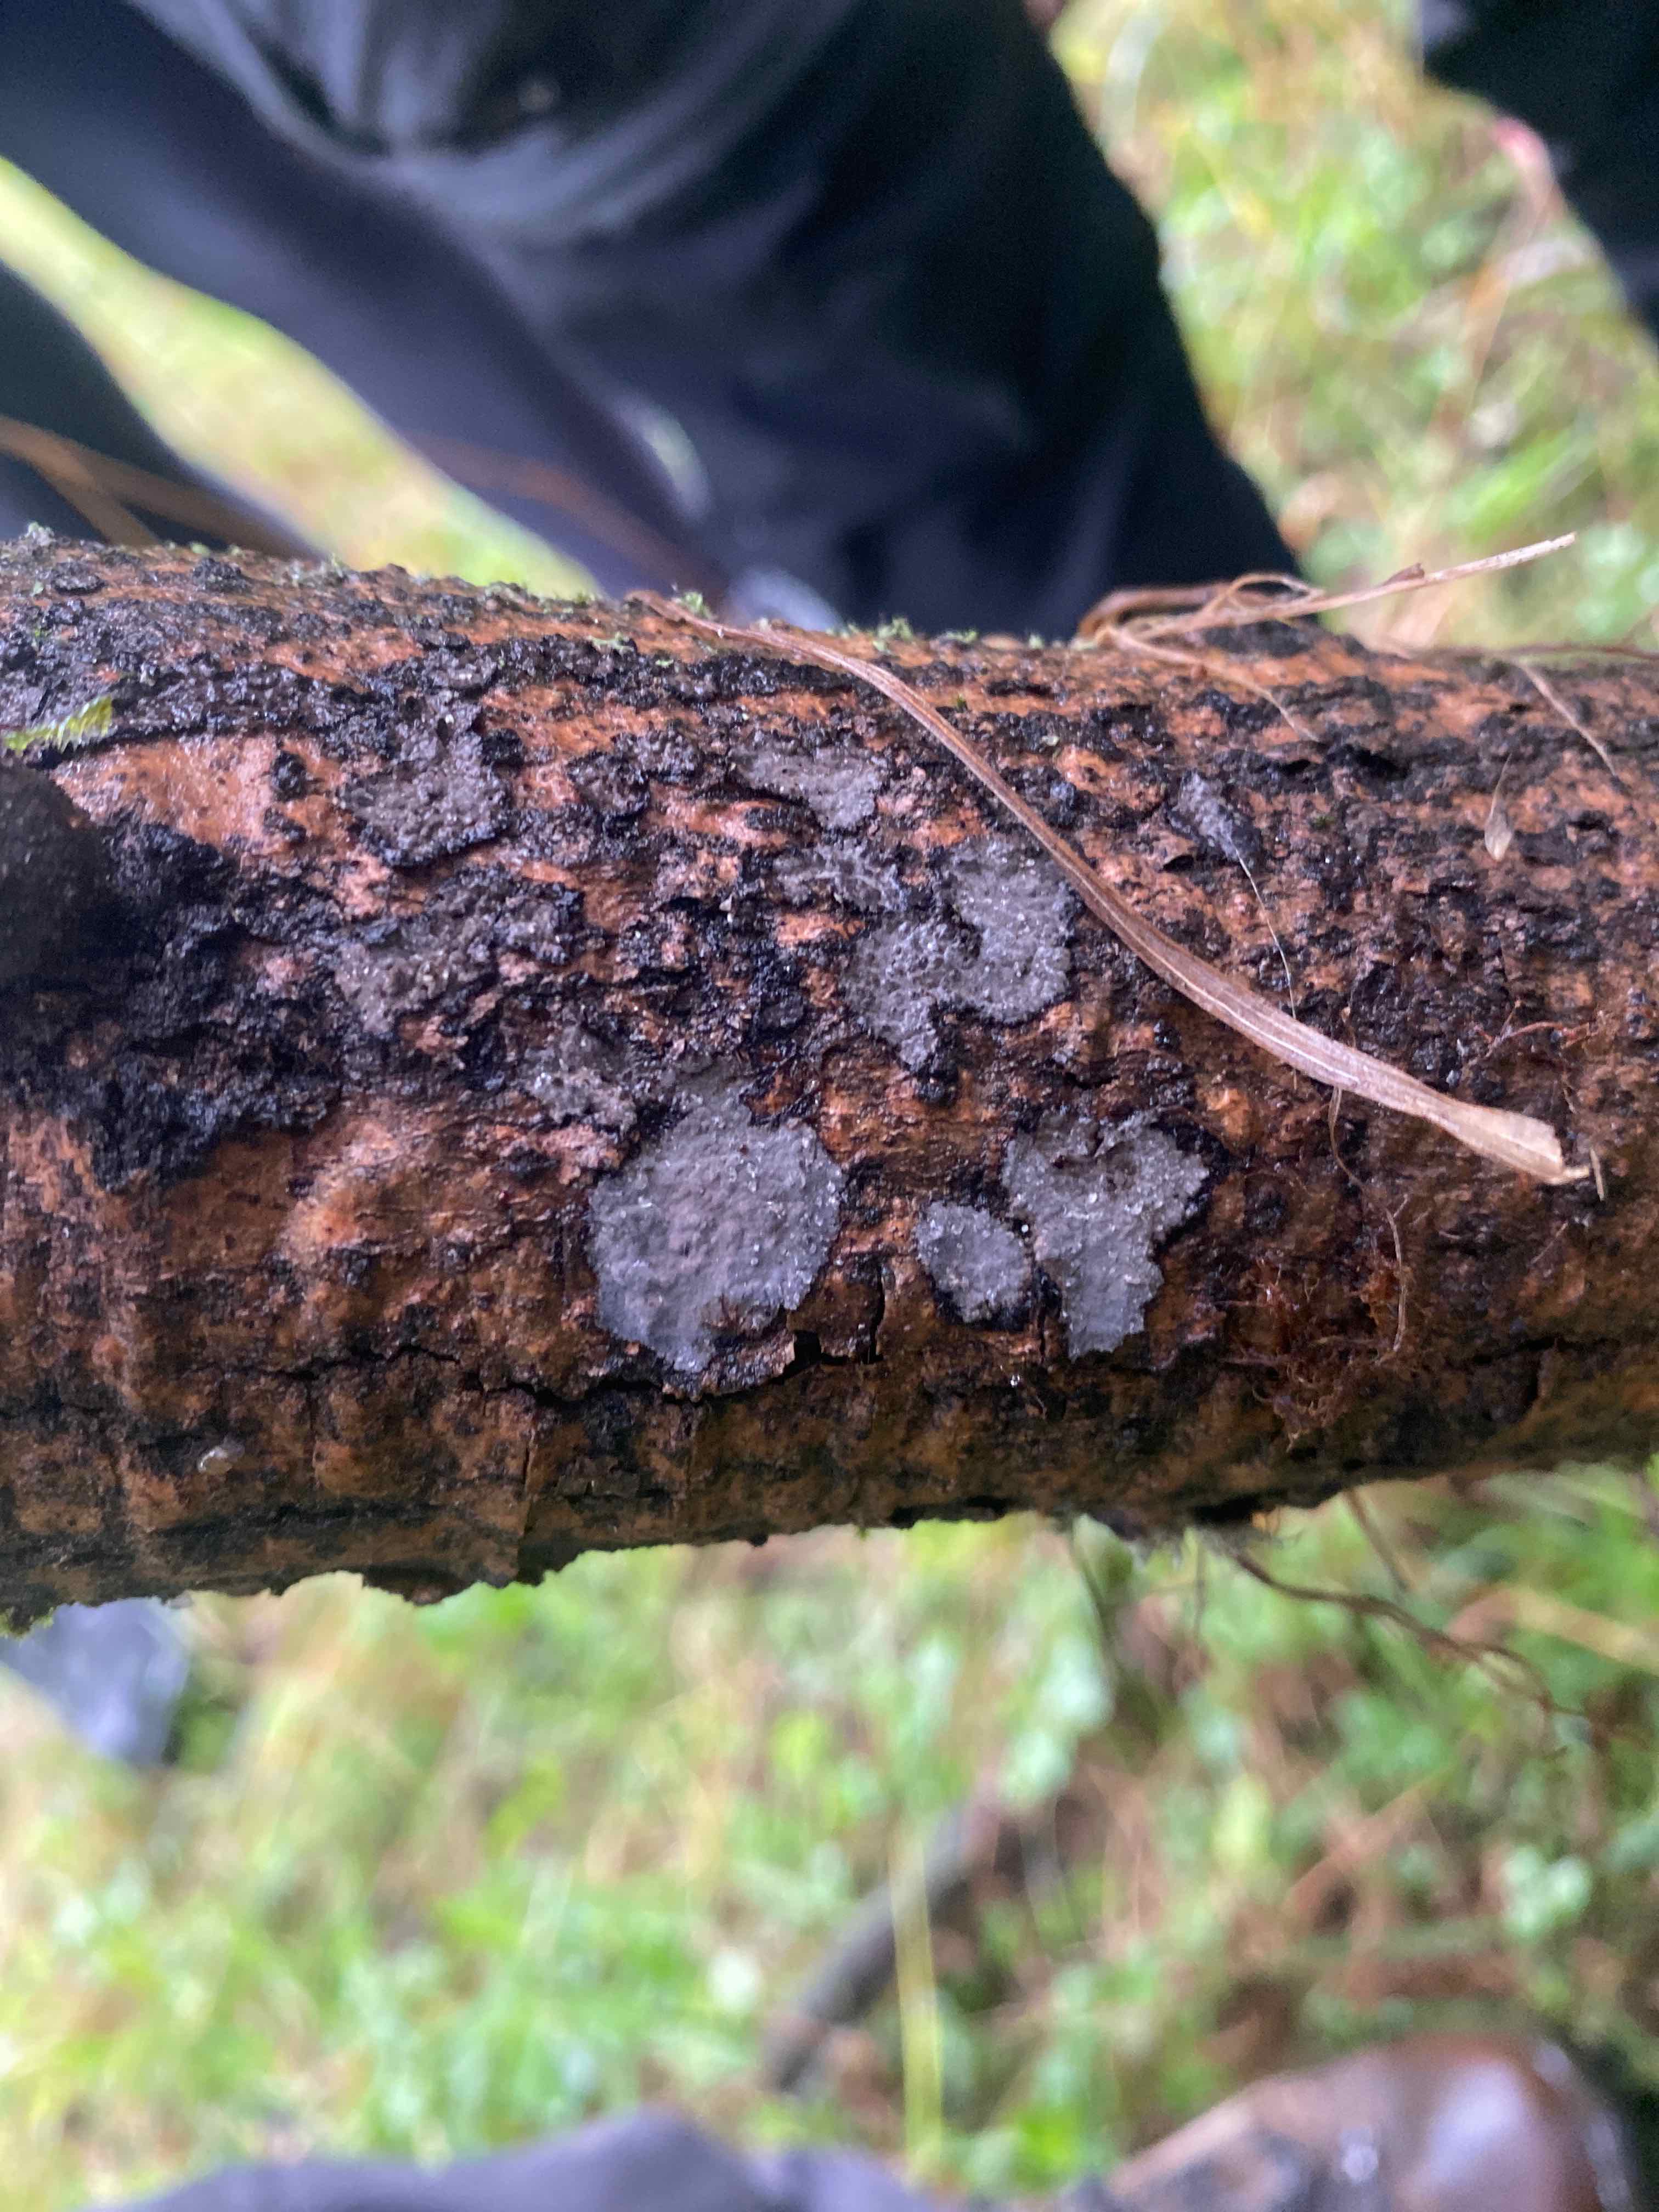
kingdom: Fungi
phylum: Basidiomycota
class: Agaricomycetes
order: Russulales
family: Peniophoraceae
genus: Peniophora
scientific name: Peniophora limitata
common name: mørkrandet voksskind
